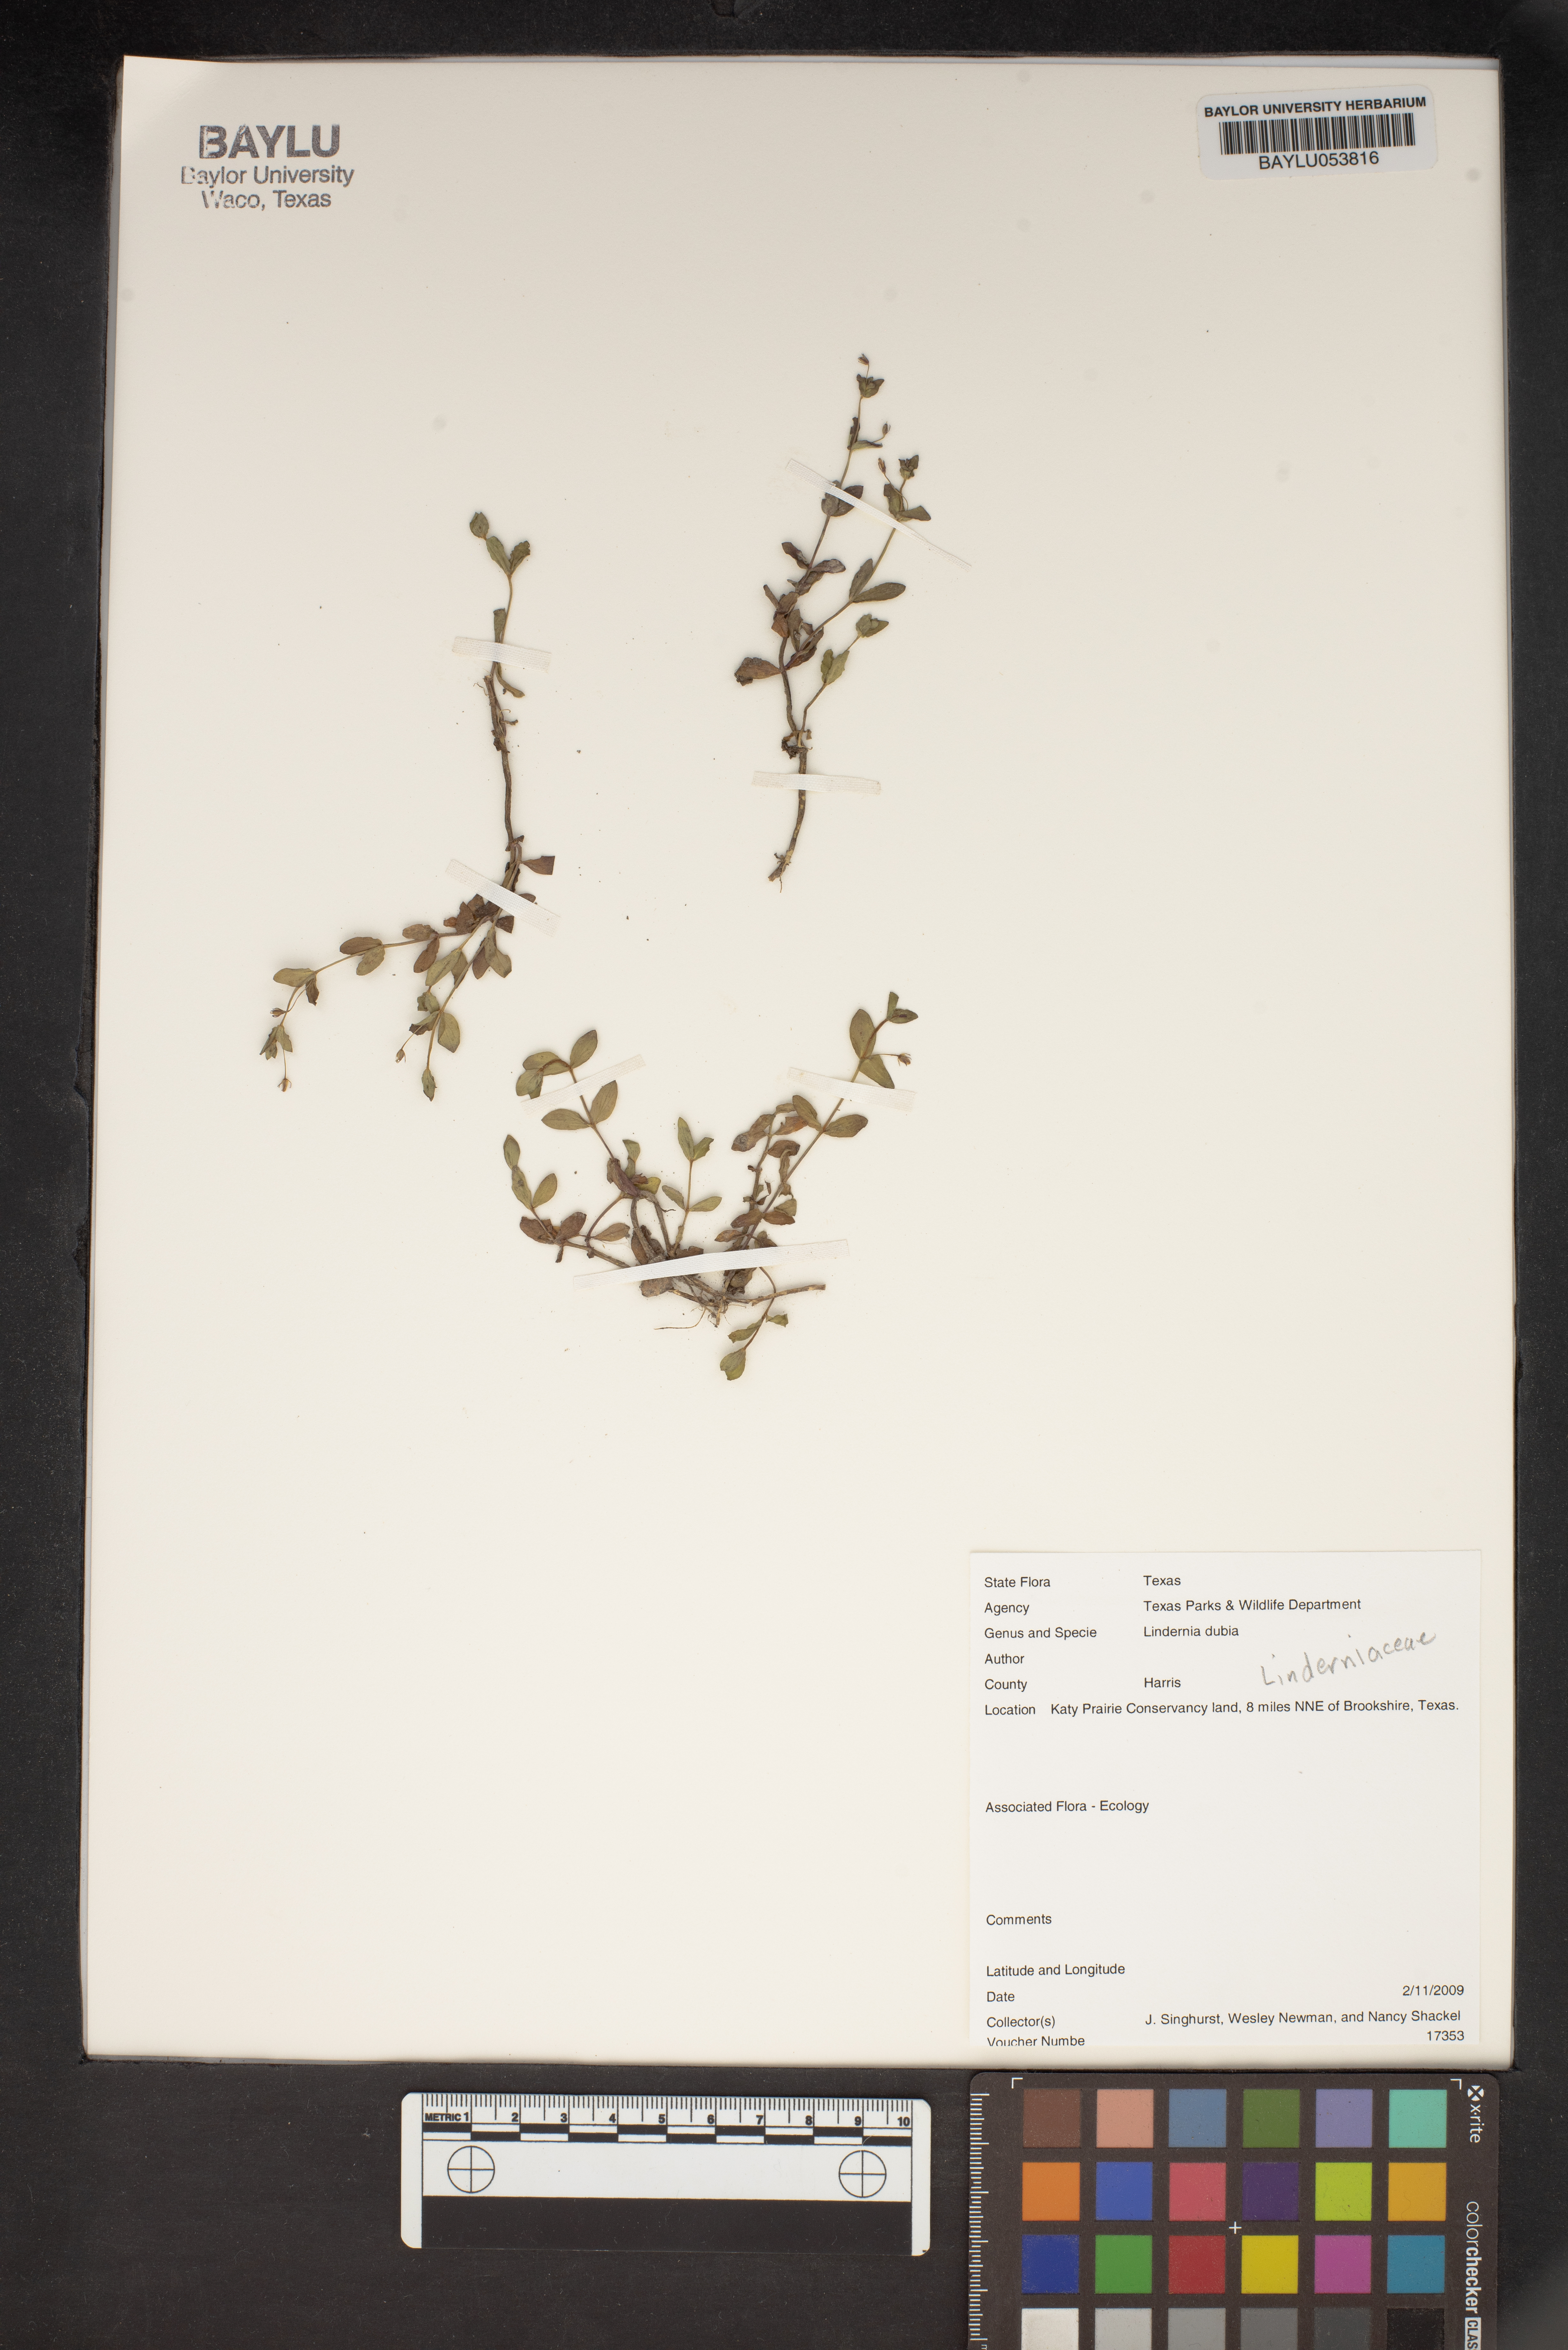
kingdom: Plantae
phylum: Tracheophyta
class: Magnoliopsida
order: Lamiales
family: Linderniaceae
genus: Lindernia
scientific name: Lindernia dubia
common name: Annual false pimpernel
